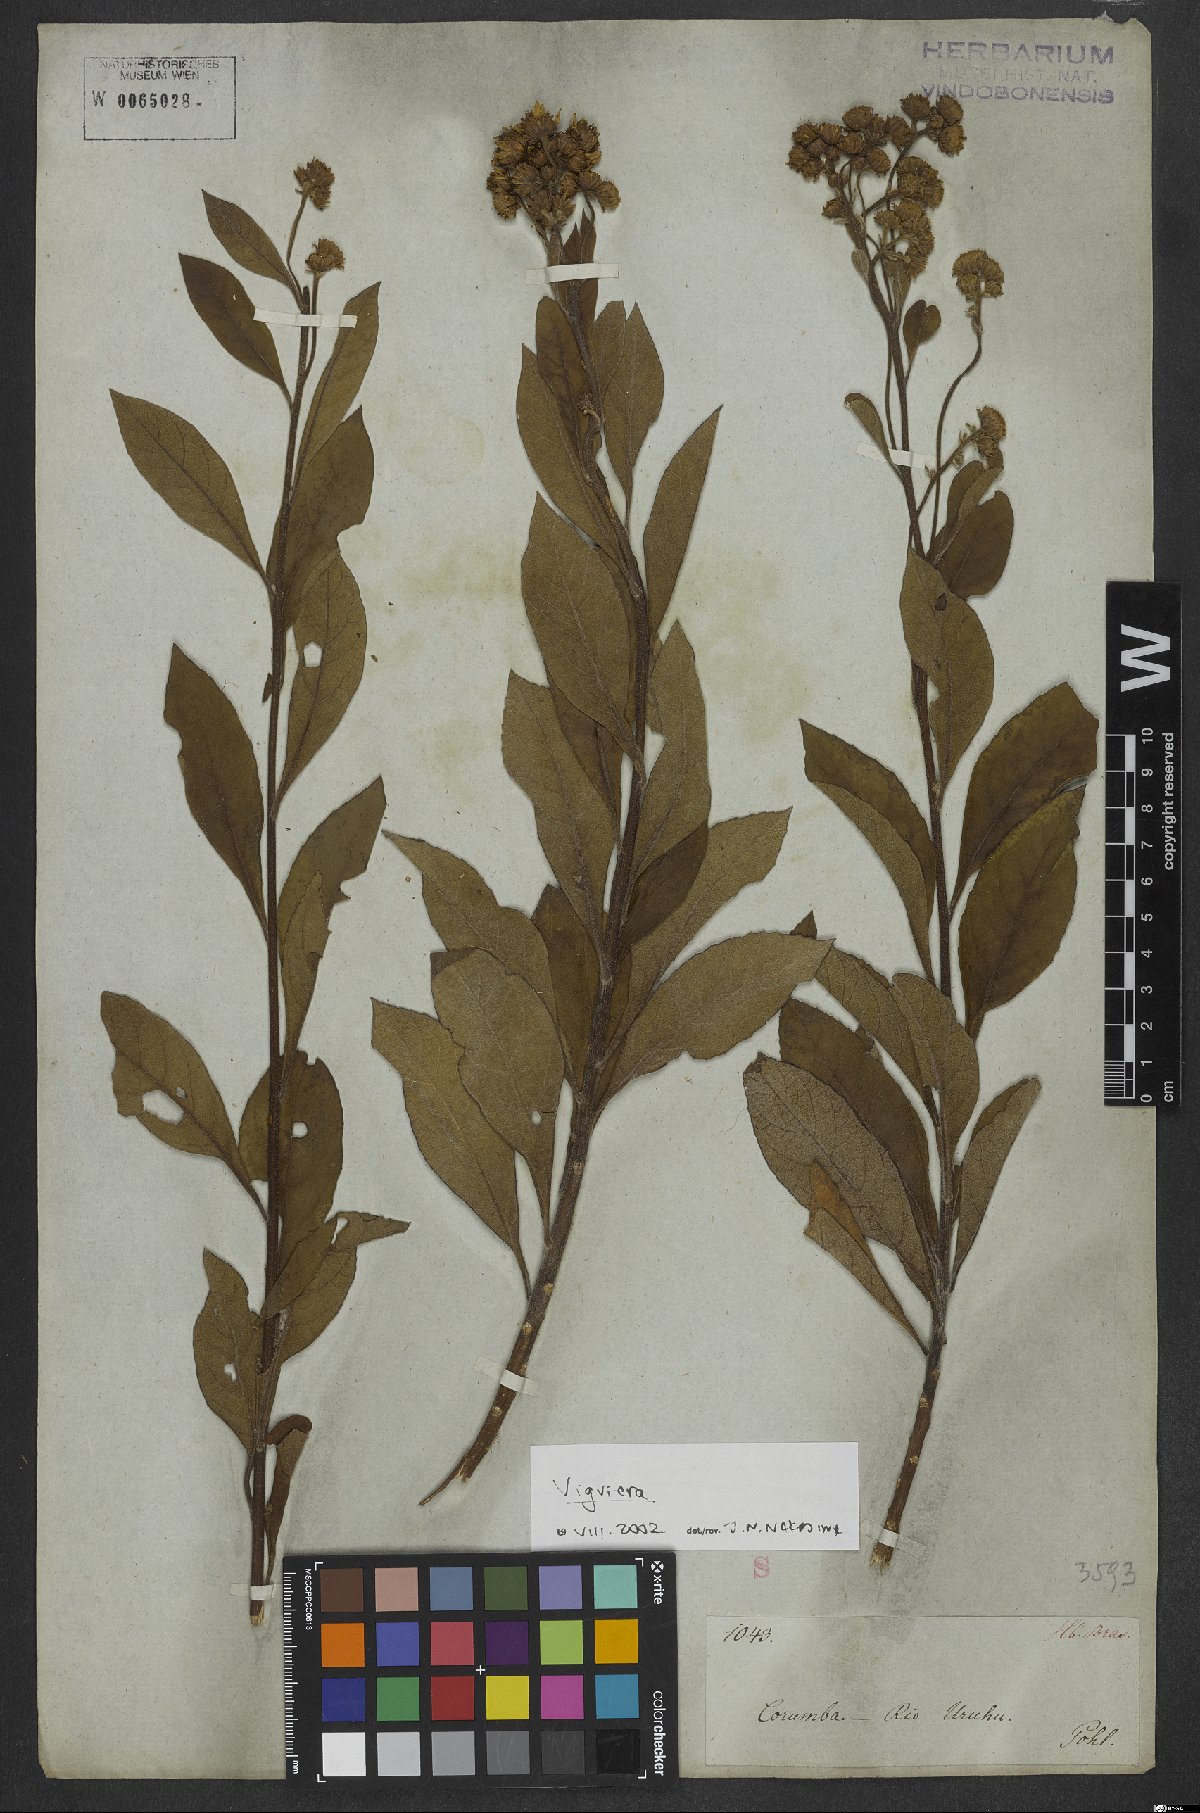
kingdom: Plantae
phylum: Tracheophyta
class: Magnoliopsida
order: Asterales
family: Asteraceae
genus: Viguiera
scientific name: Viguiera
